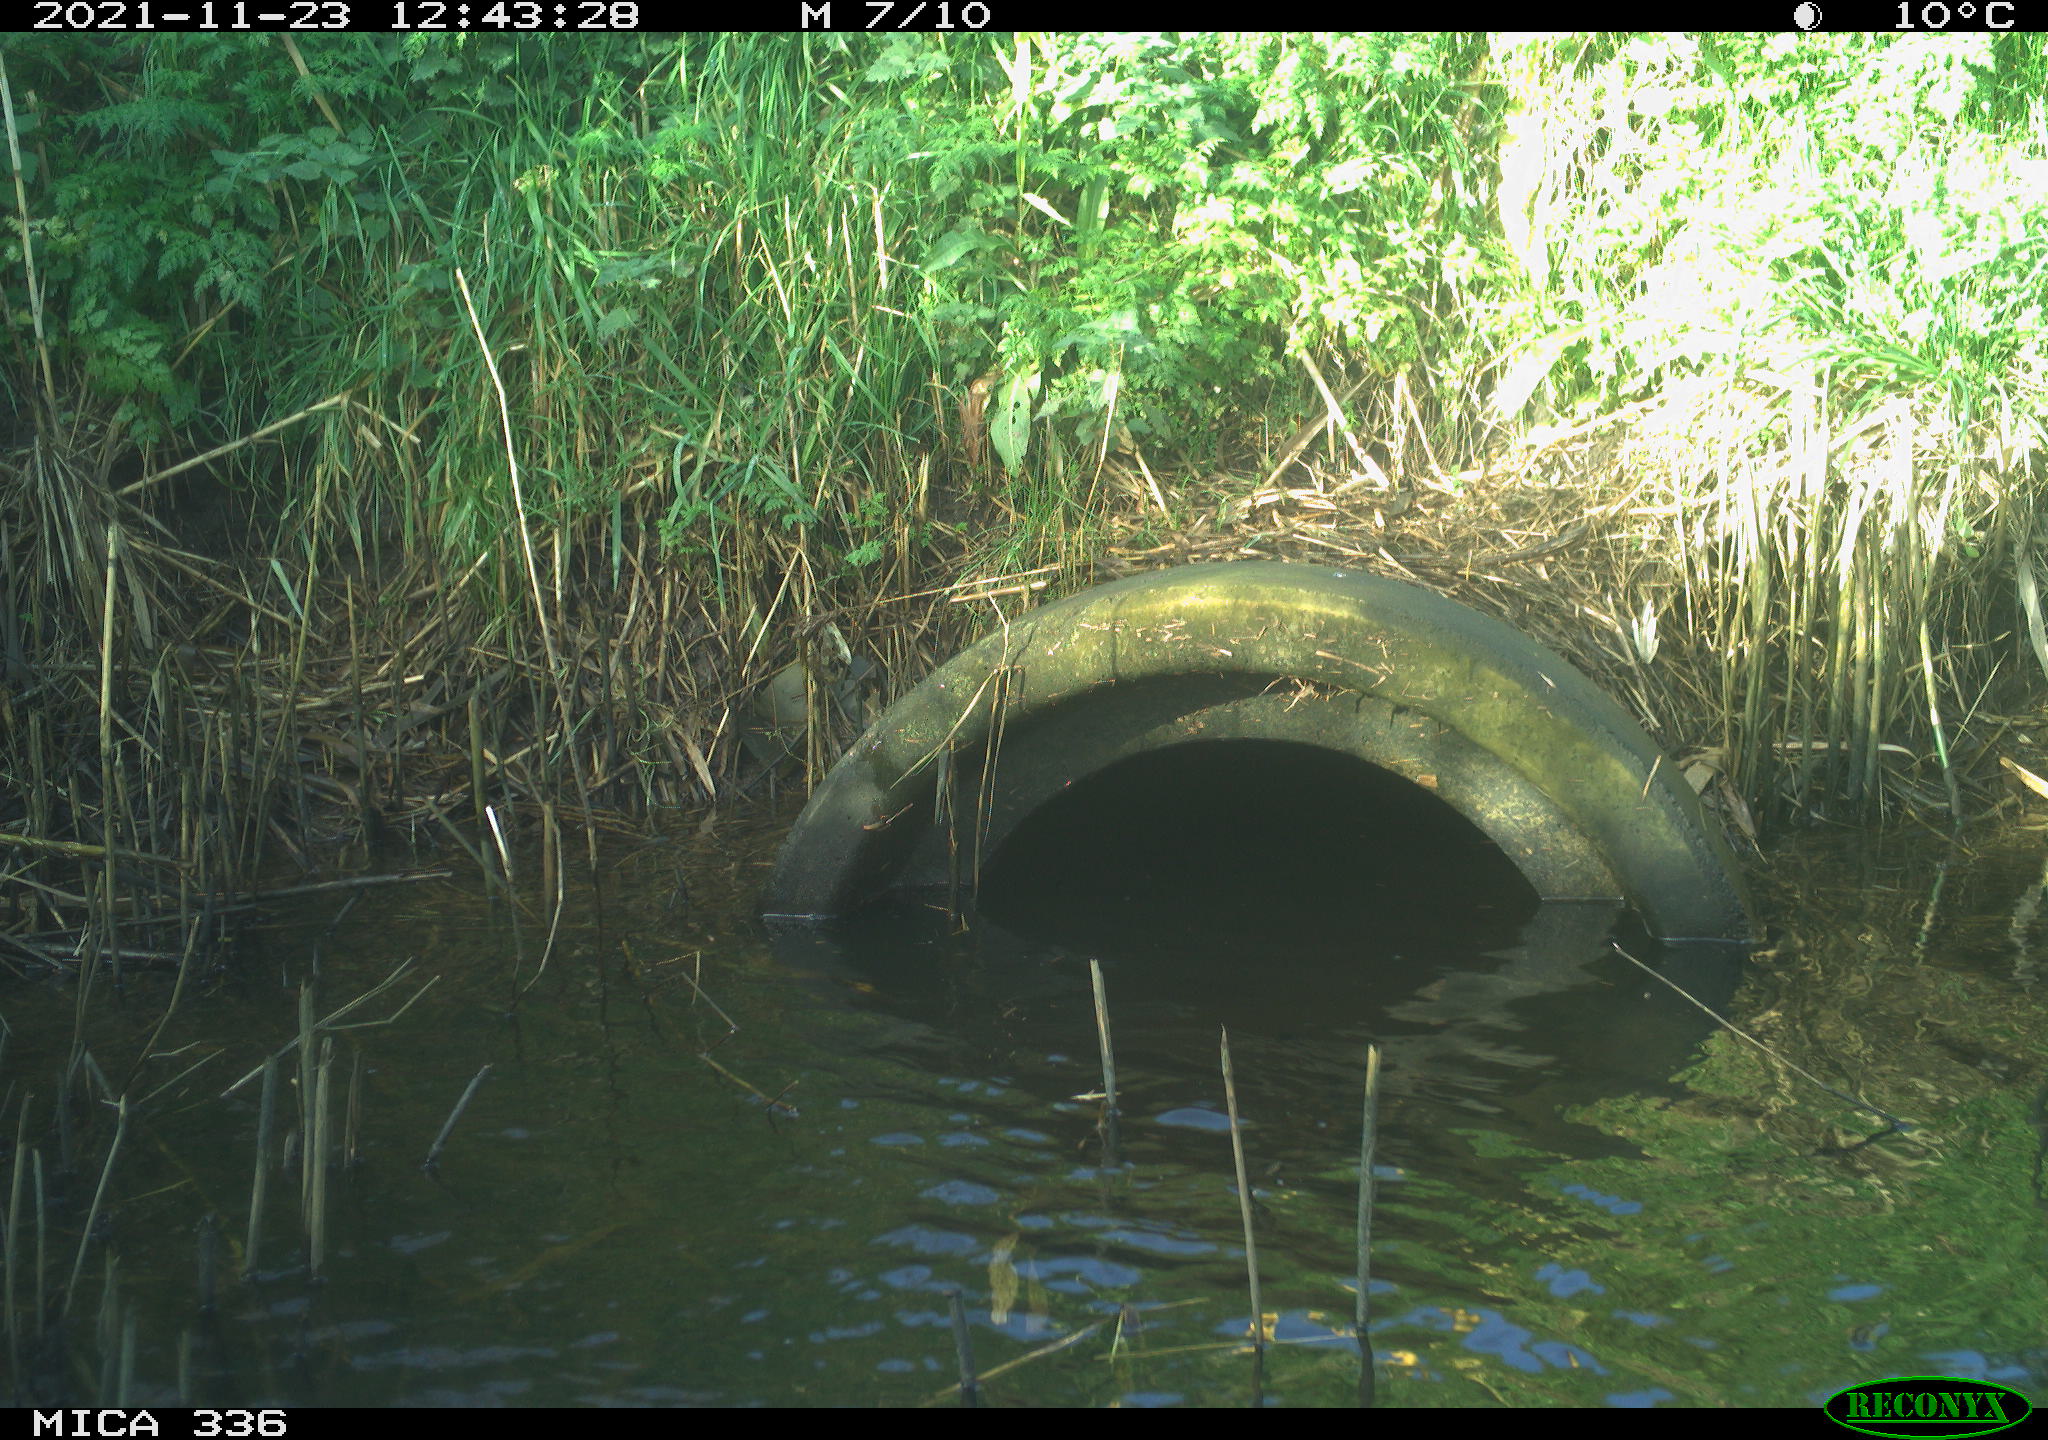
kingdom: Animalia
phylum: Chordata
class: Aves
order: Gruiformes
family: Rallidae
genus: Gallinula
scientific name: Gallinula chloropus
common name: Common moorhen
